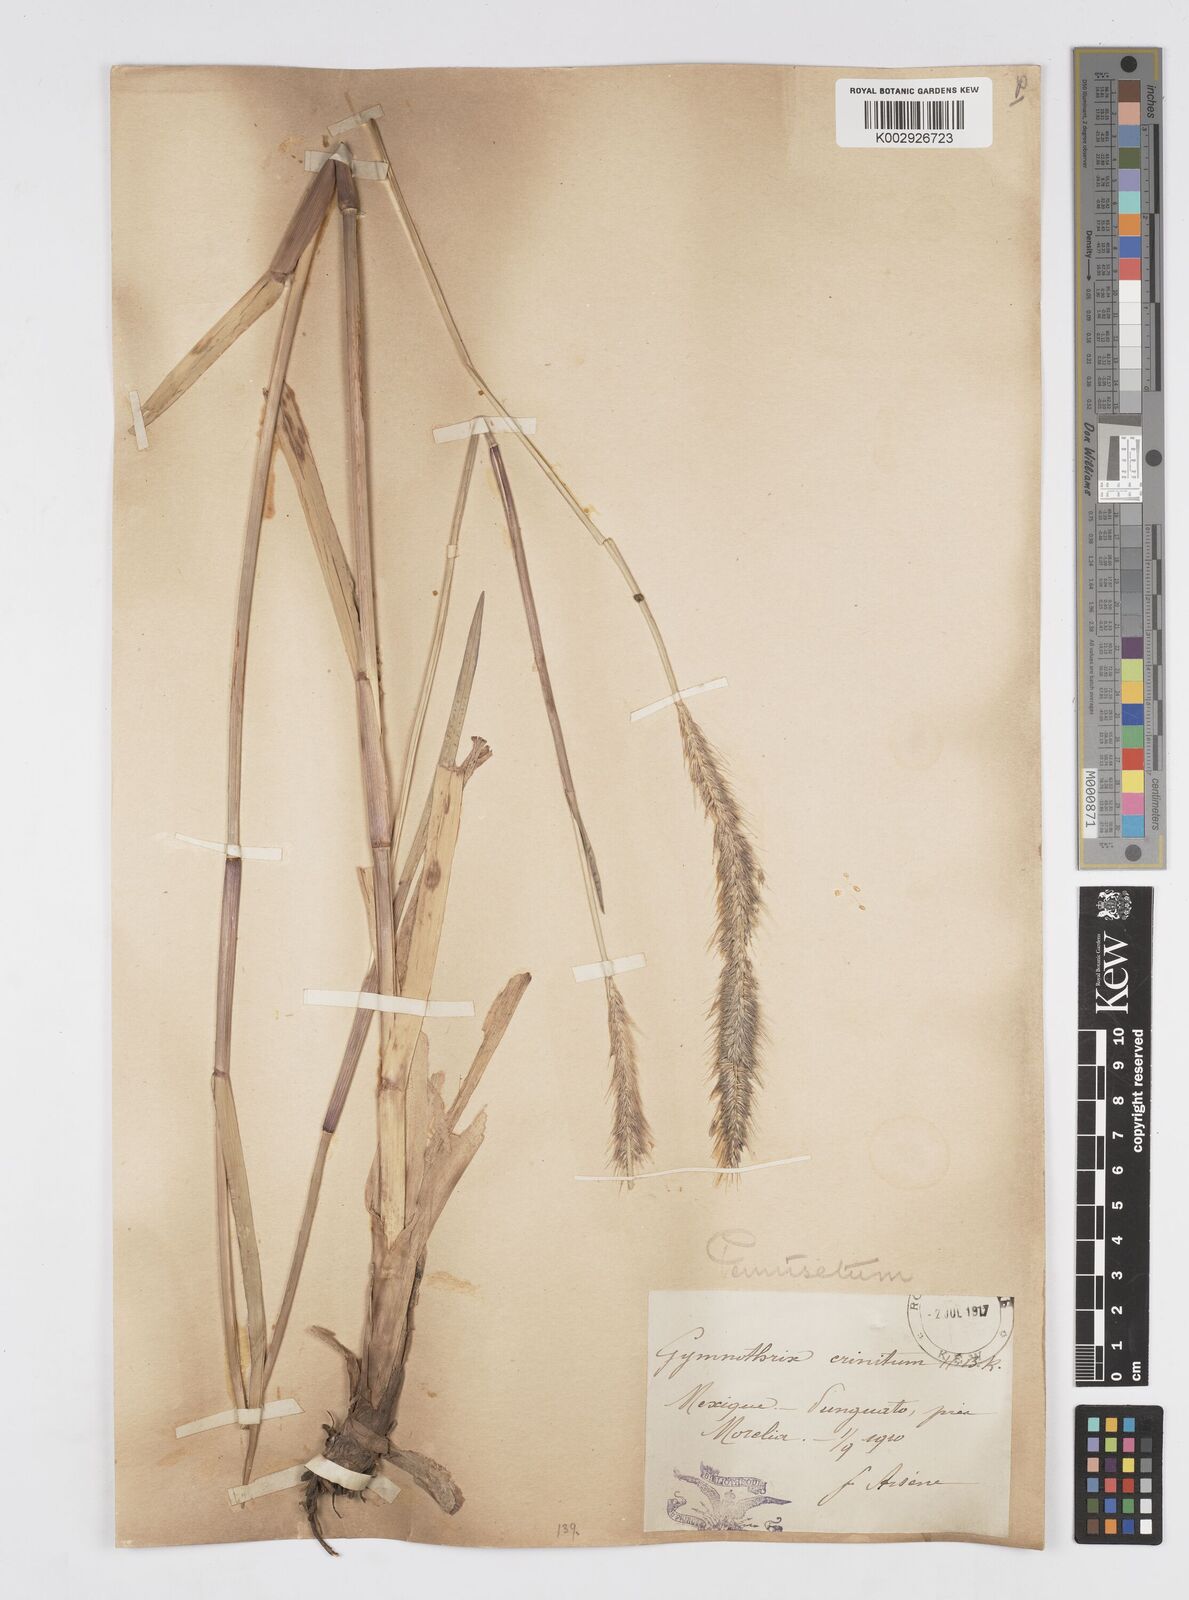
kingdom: Plantae
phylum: Tracheophyta
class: Liliopsida
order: Poales
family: Poaceae
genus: Cenchrus
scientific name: Cenchrus michoacanus
